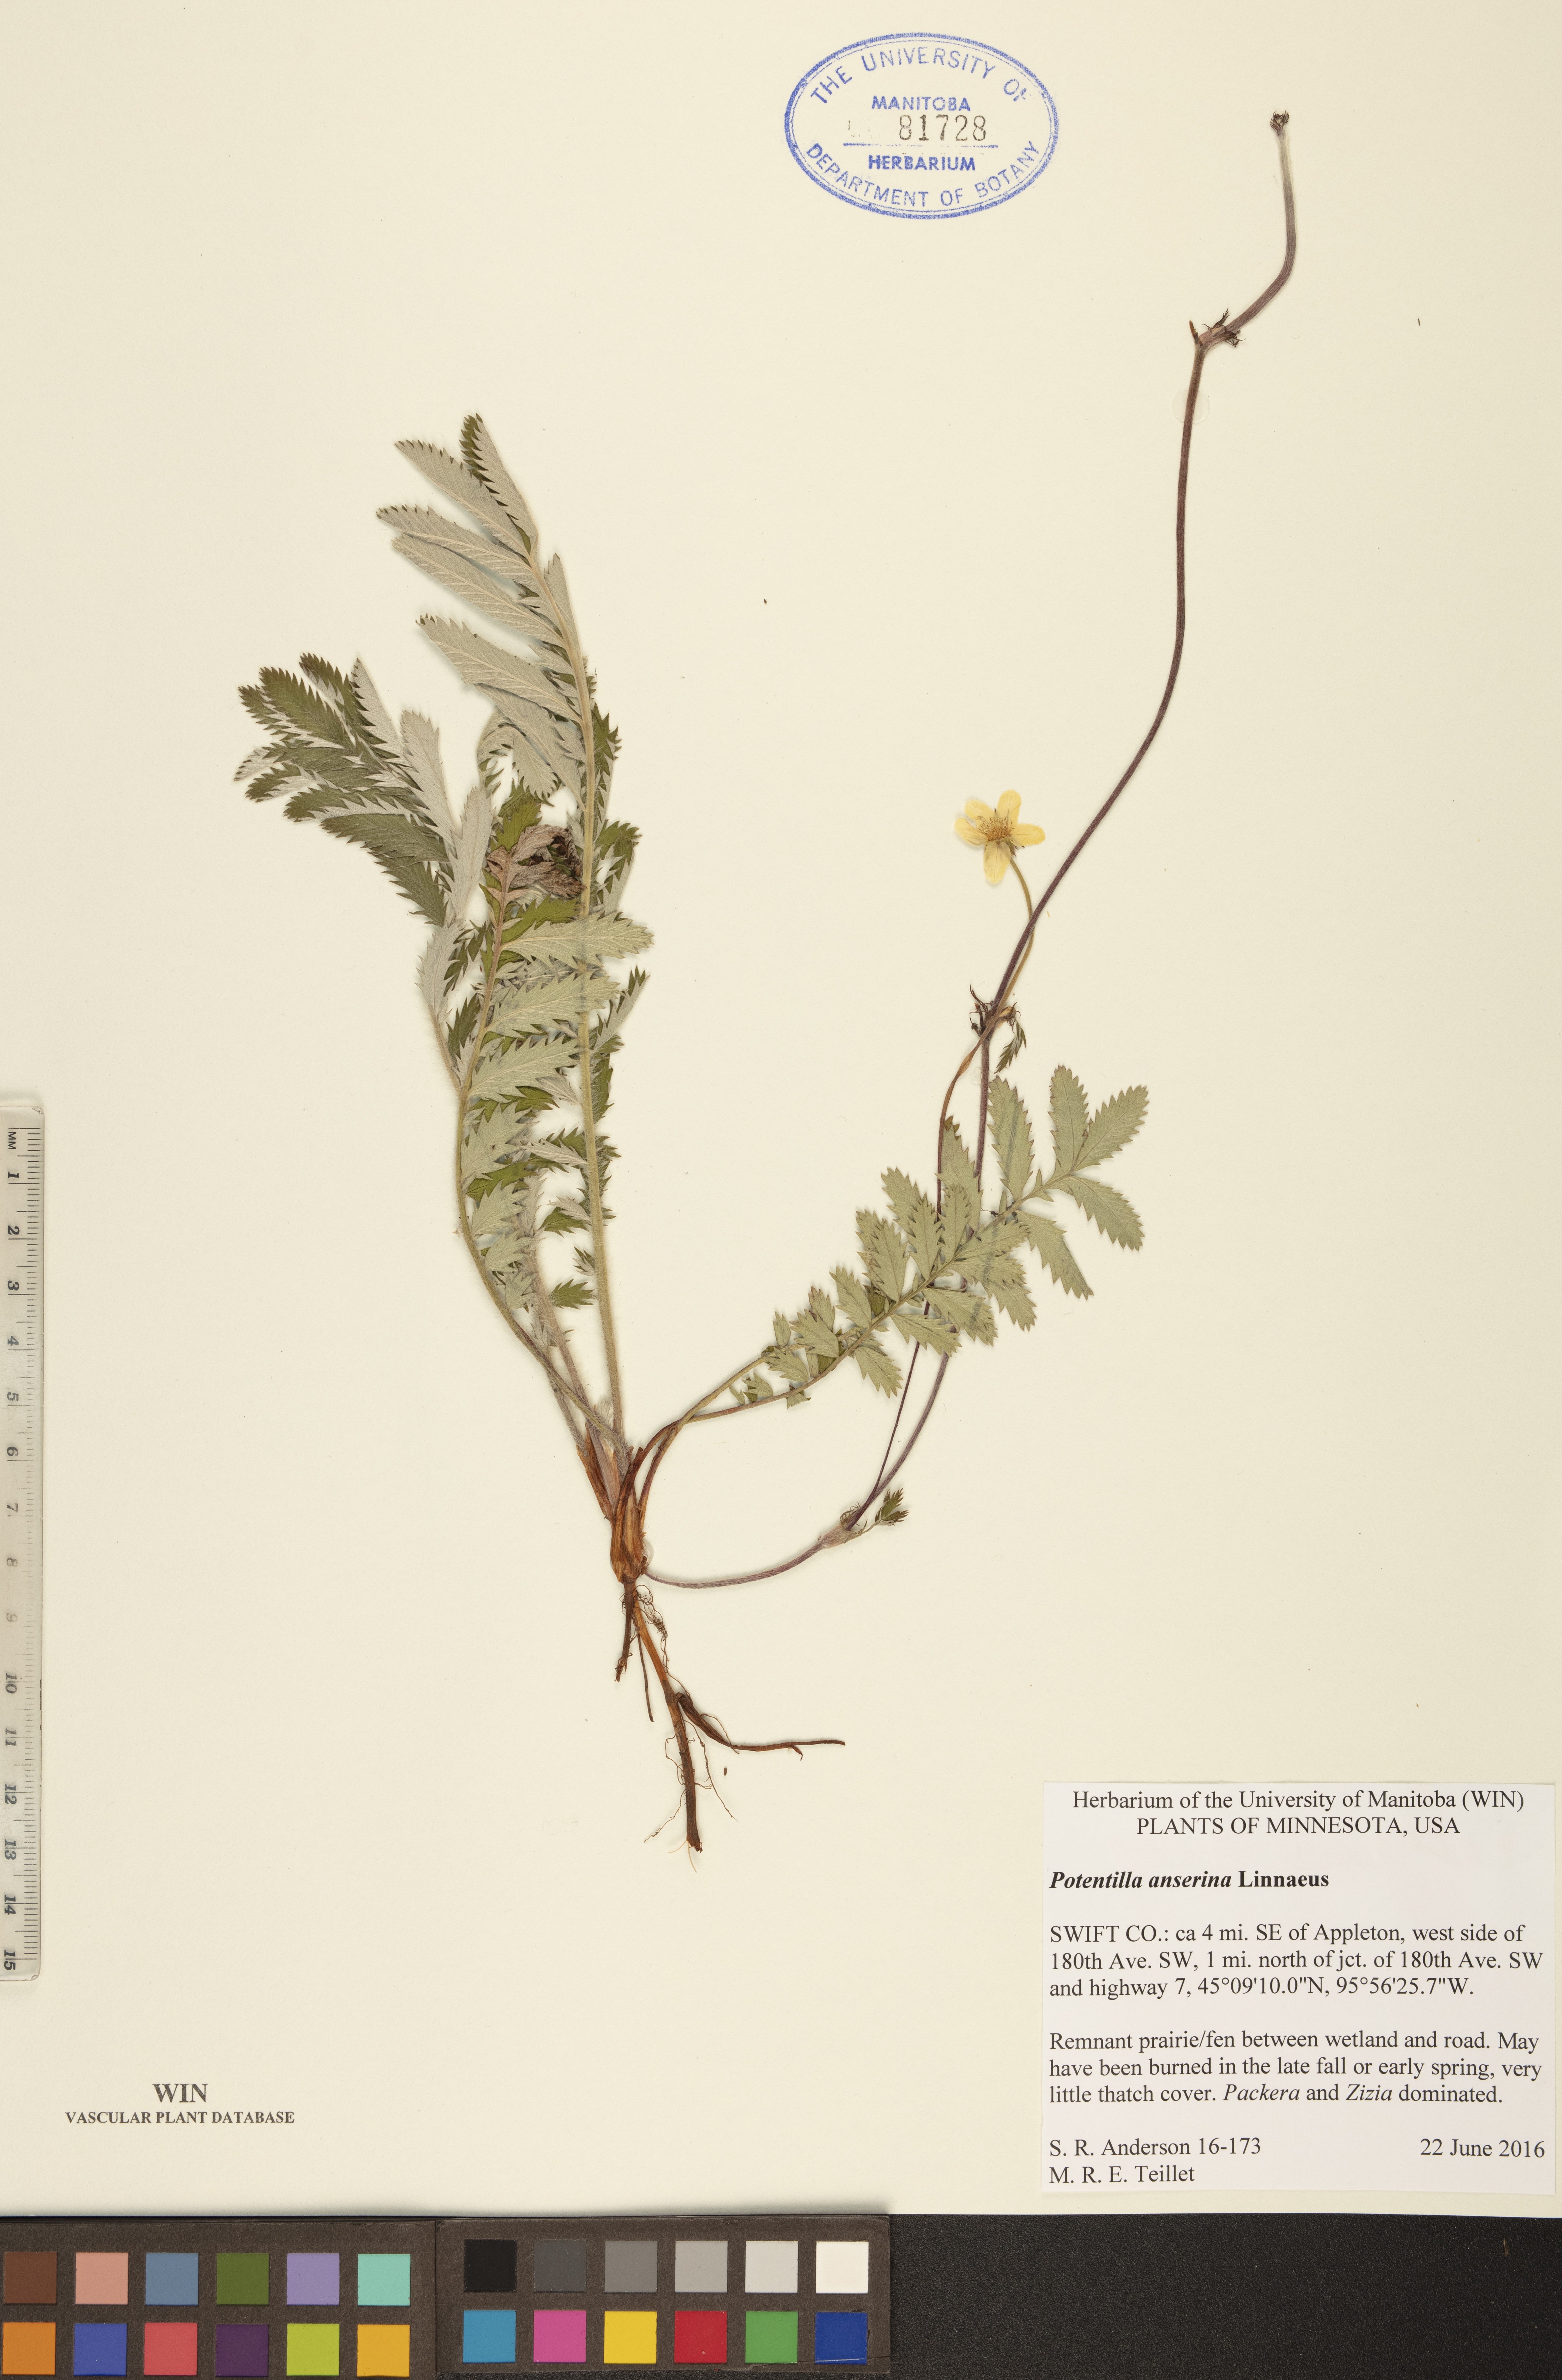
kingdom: Plantae
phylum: Tracheophyta
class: Magnoliopsida
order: Rosales
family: Rosaceae
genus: Argentina
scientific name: Argentina anserina
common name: Common silverweed
